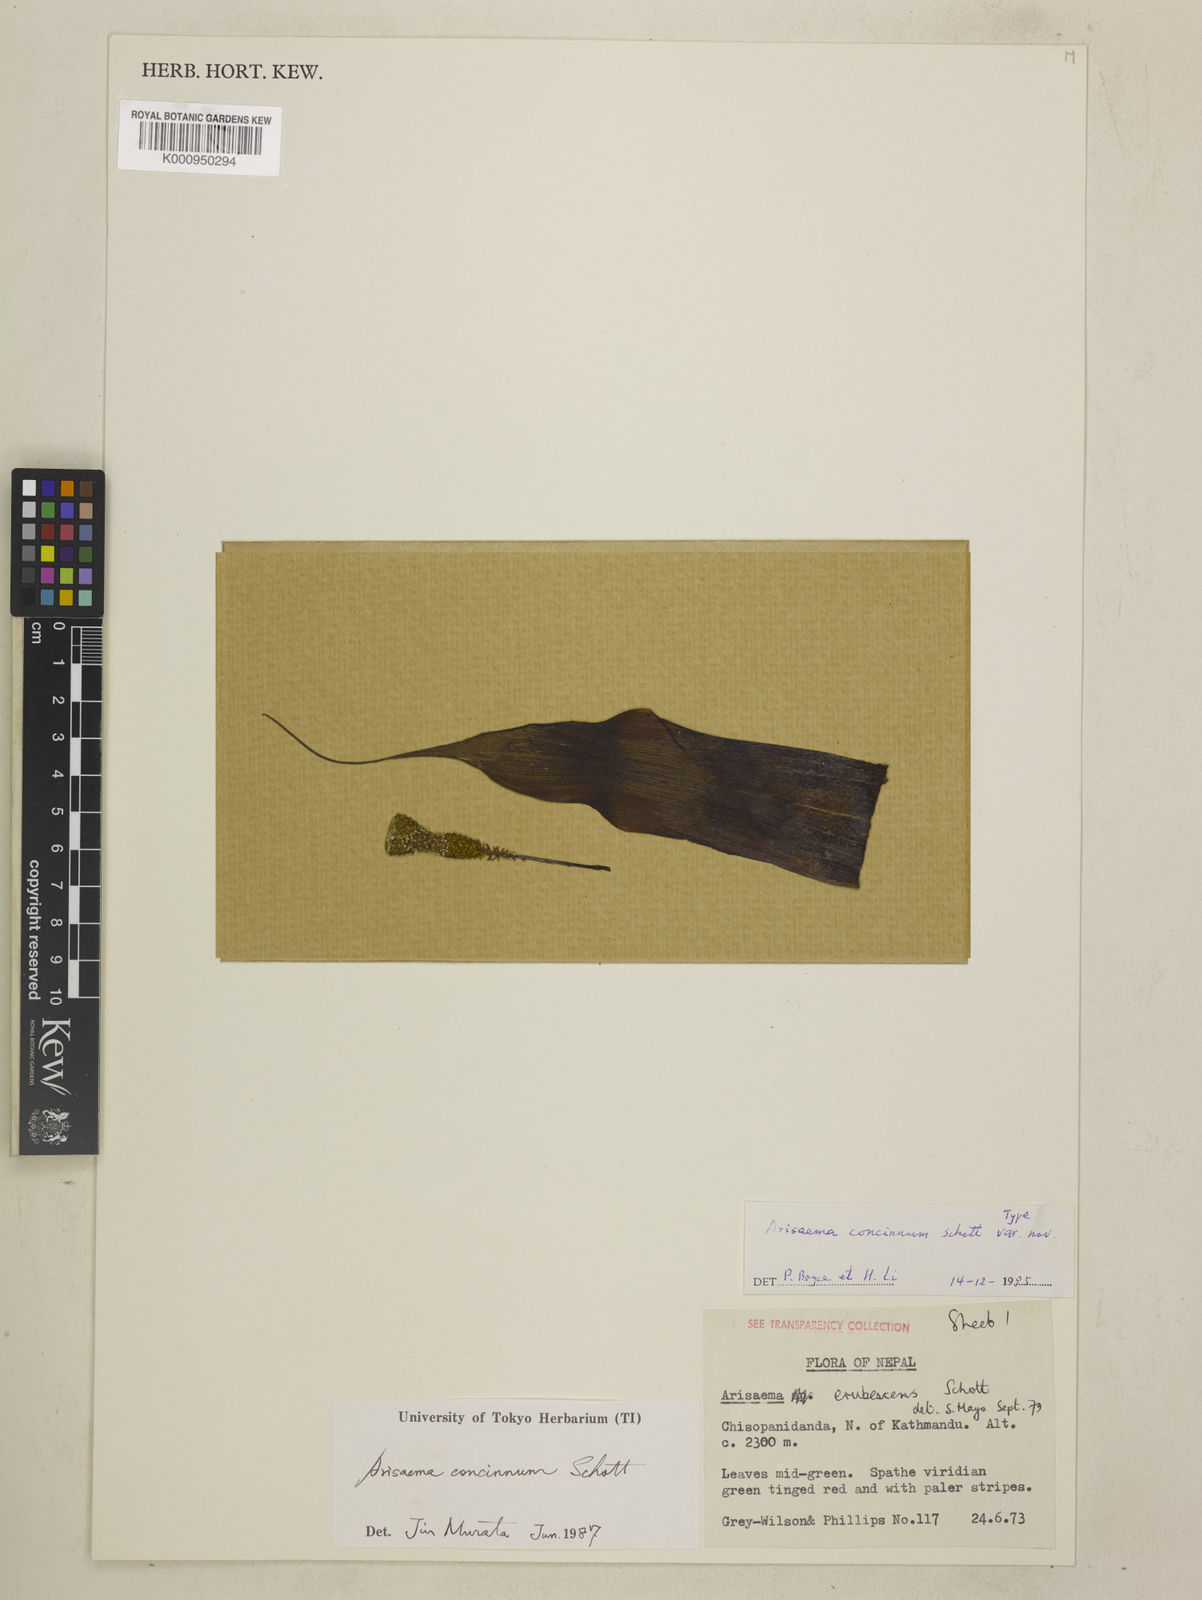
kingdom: Plantae
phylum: Tracheophyta
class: Liliopsida
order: Alismatales
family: Araceae
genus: Arisaema
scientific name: Arisaema concinnum
